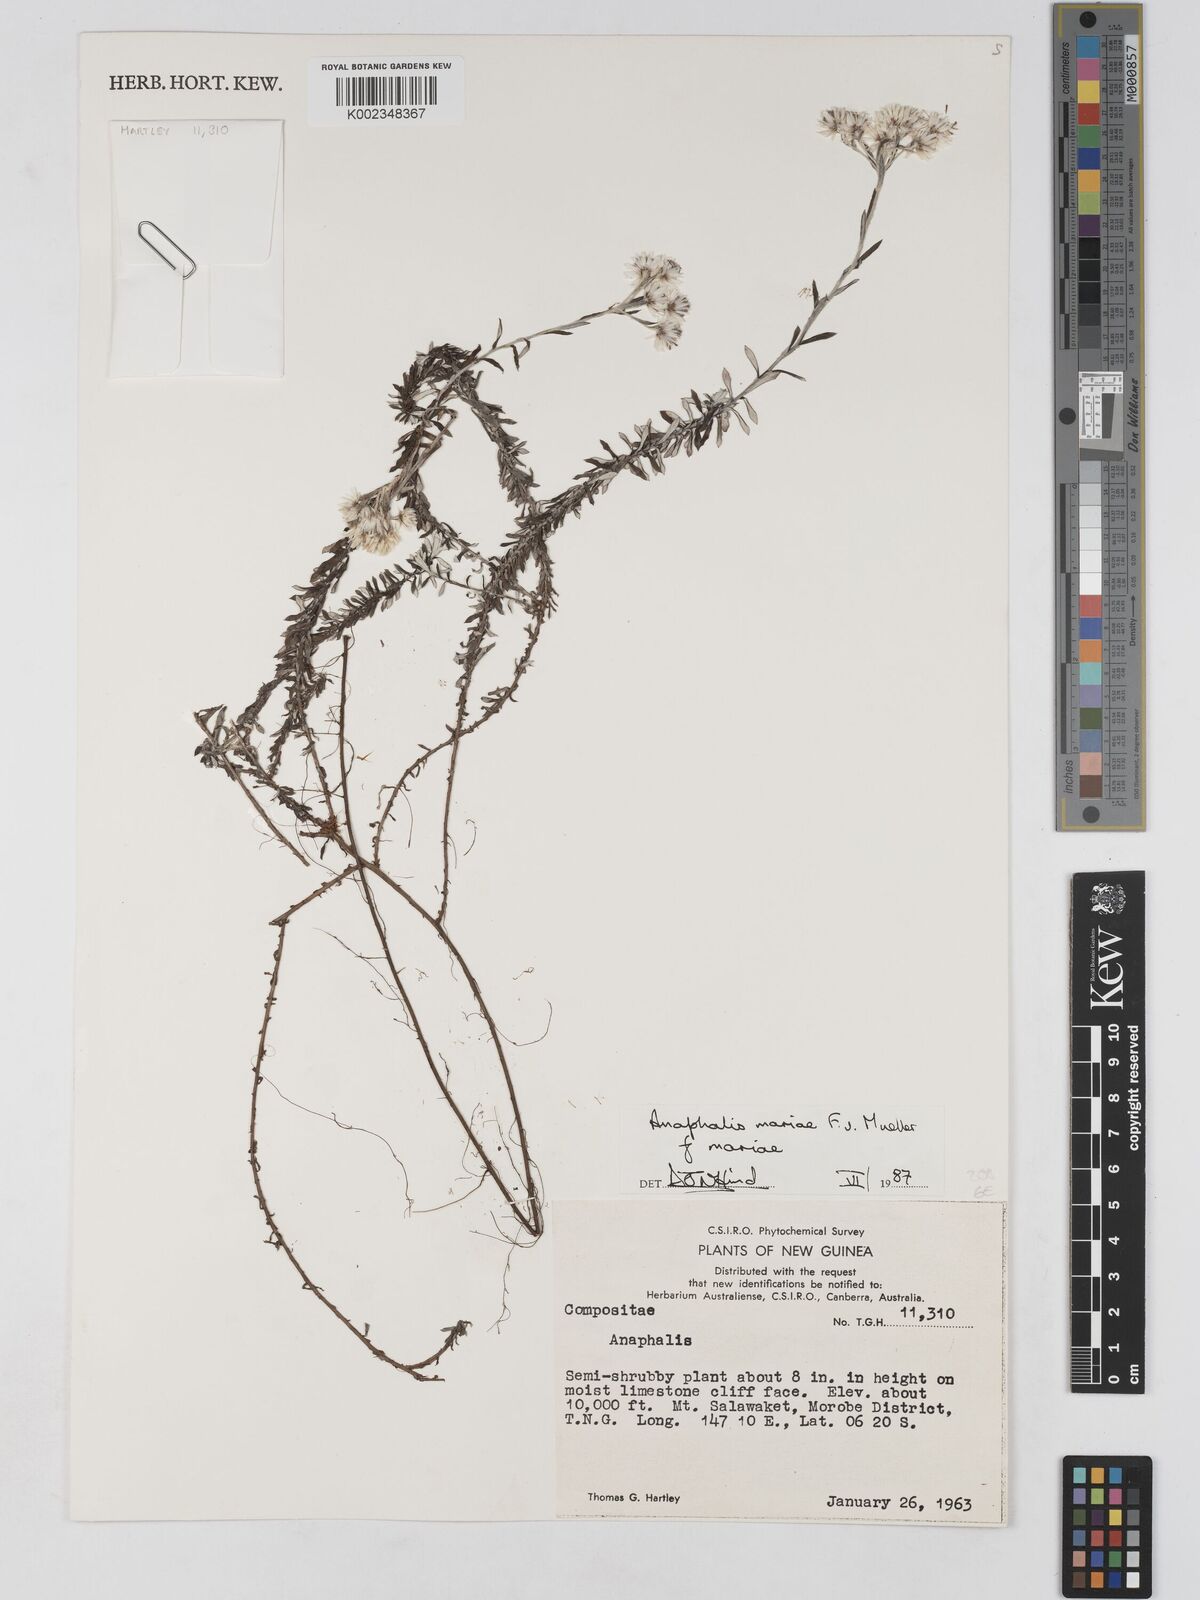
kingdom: Plantae
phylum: Tracheophyta
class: Magnoliopsida
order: Asterales
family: Asteraceae
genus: Anaphalioides
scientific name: Anaphalioides mariae
